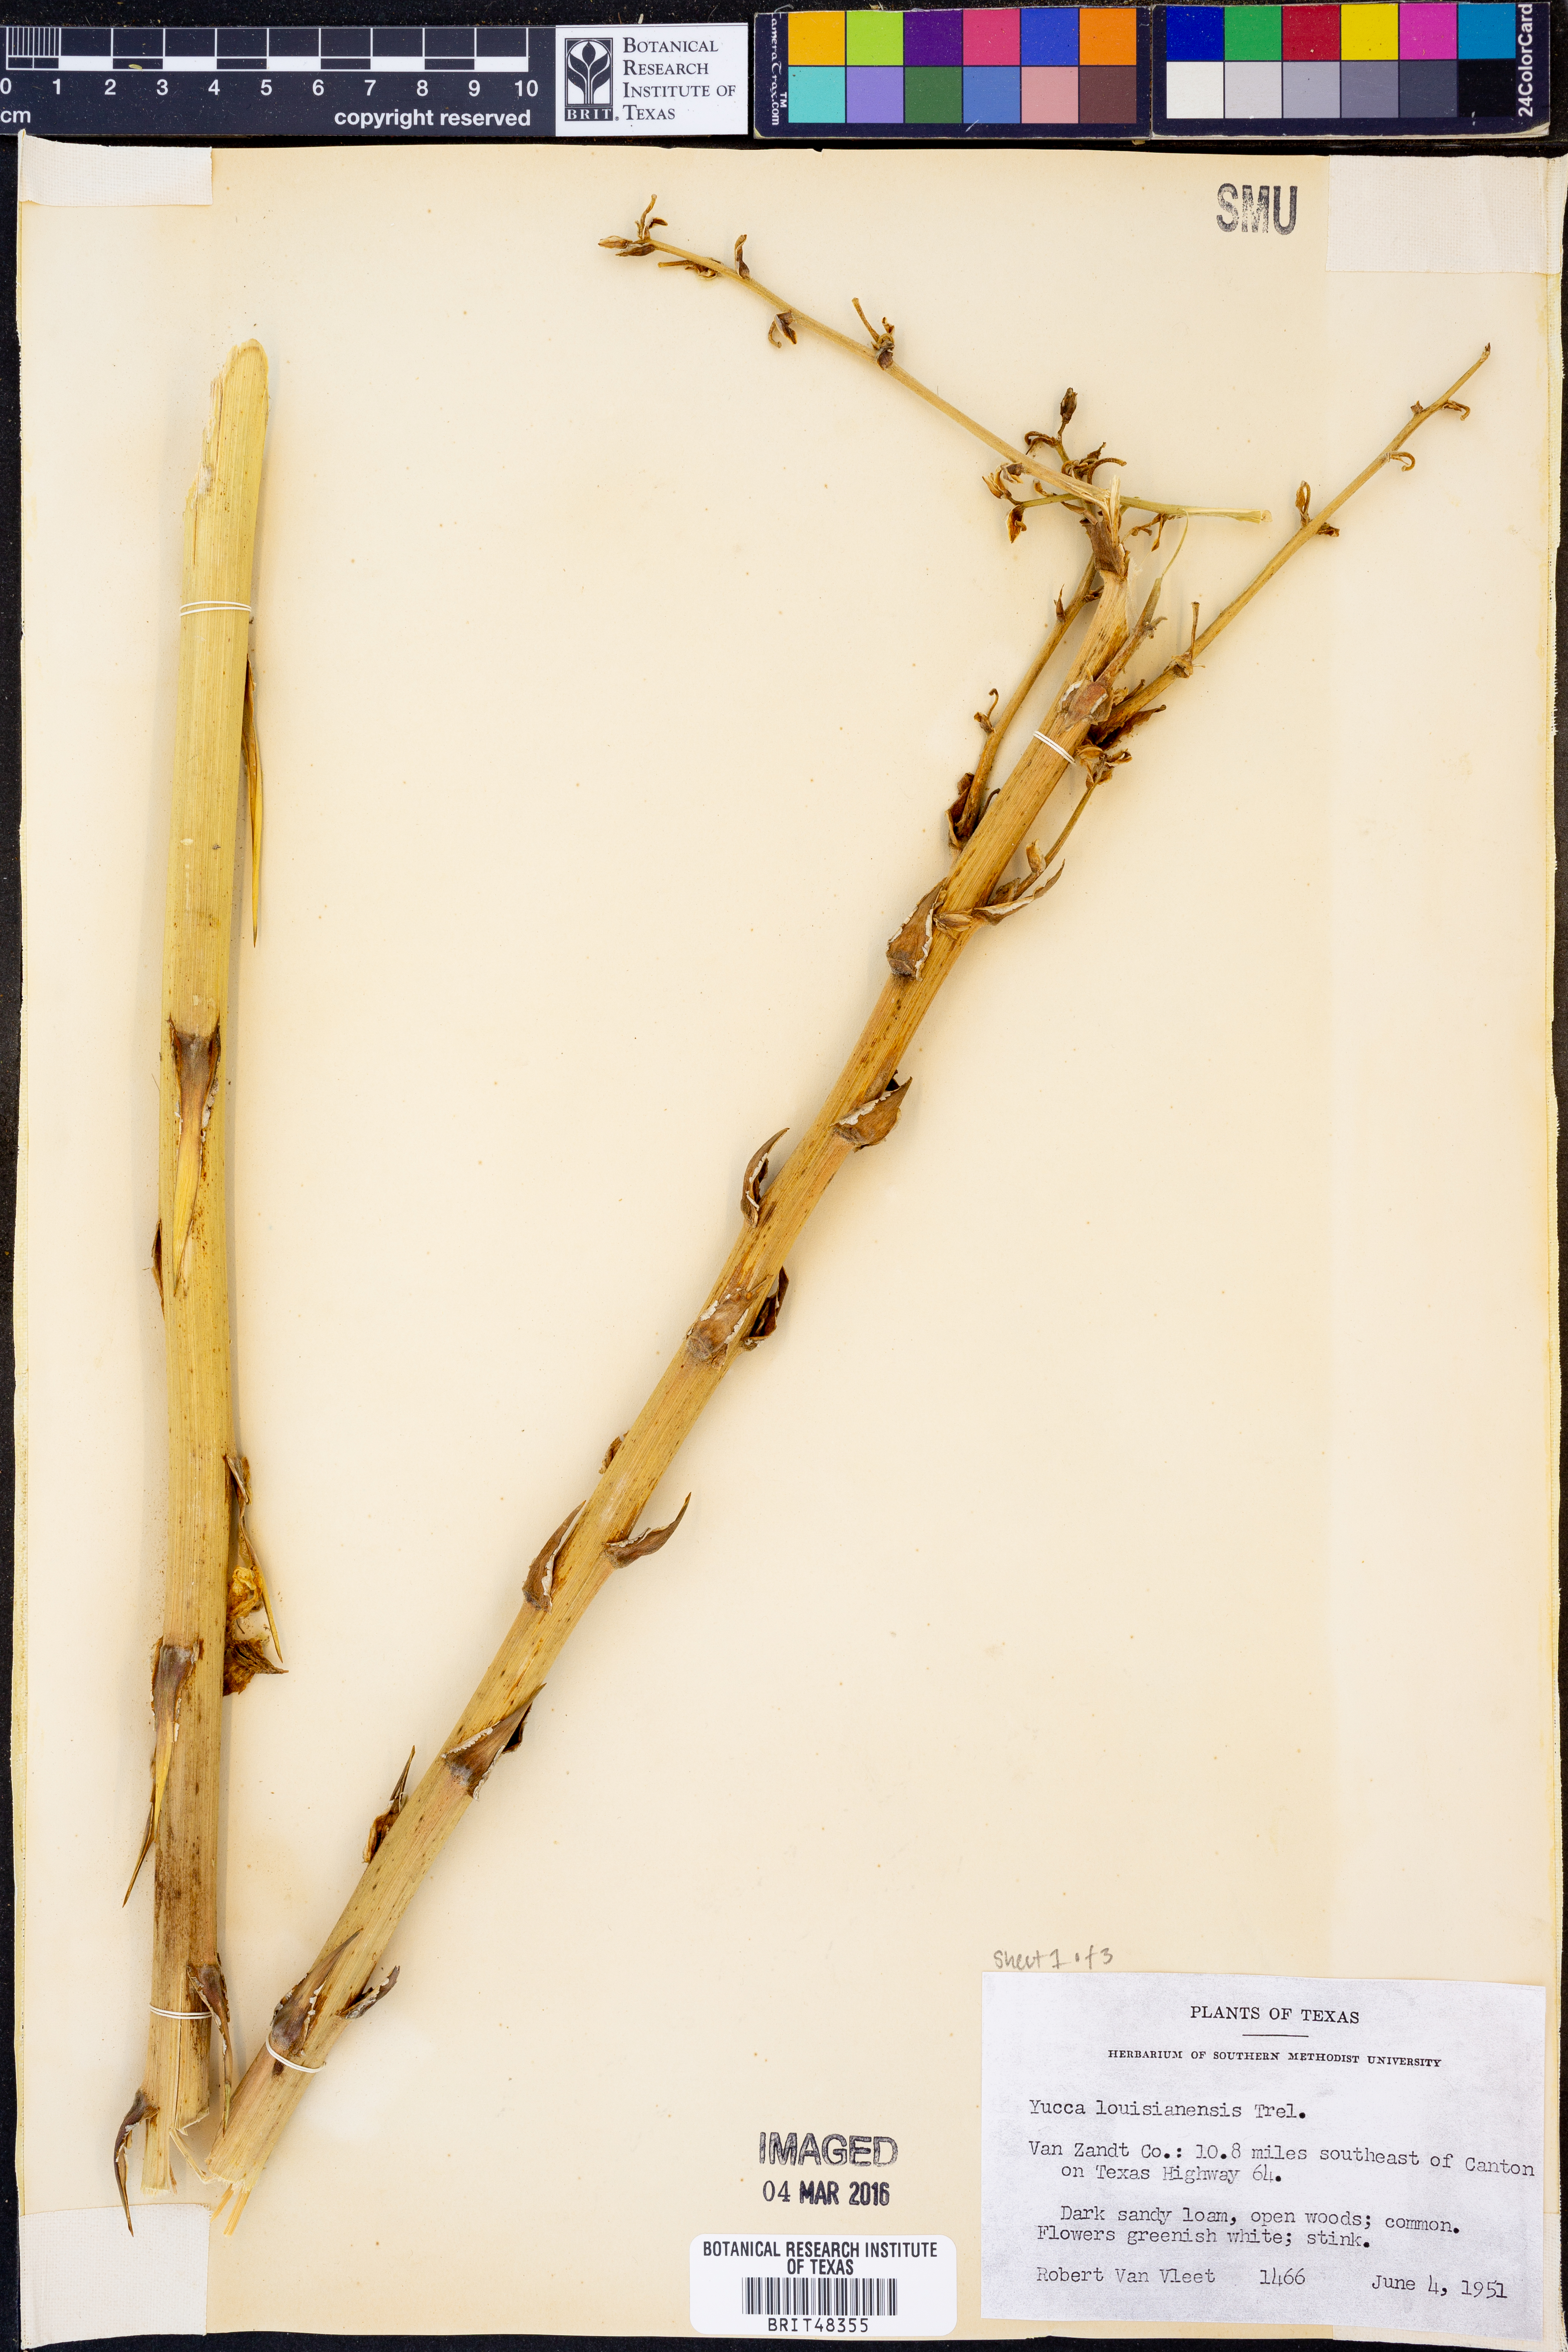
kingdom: Plantae
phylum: Tracheophyta
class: Liliopsida
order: Asparagales
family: Asparagaceae
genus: Yucca
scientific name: Yucca flaccida
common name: Adam's-needle
